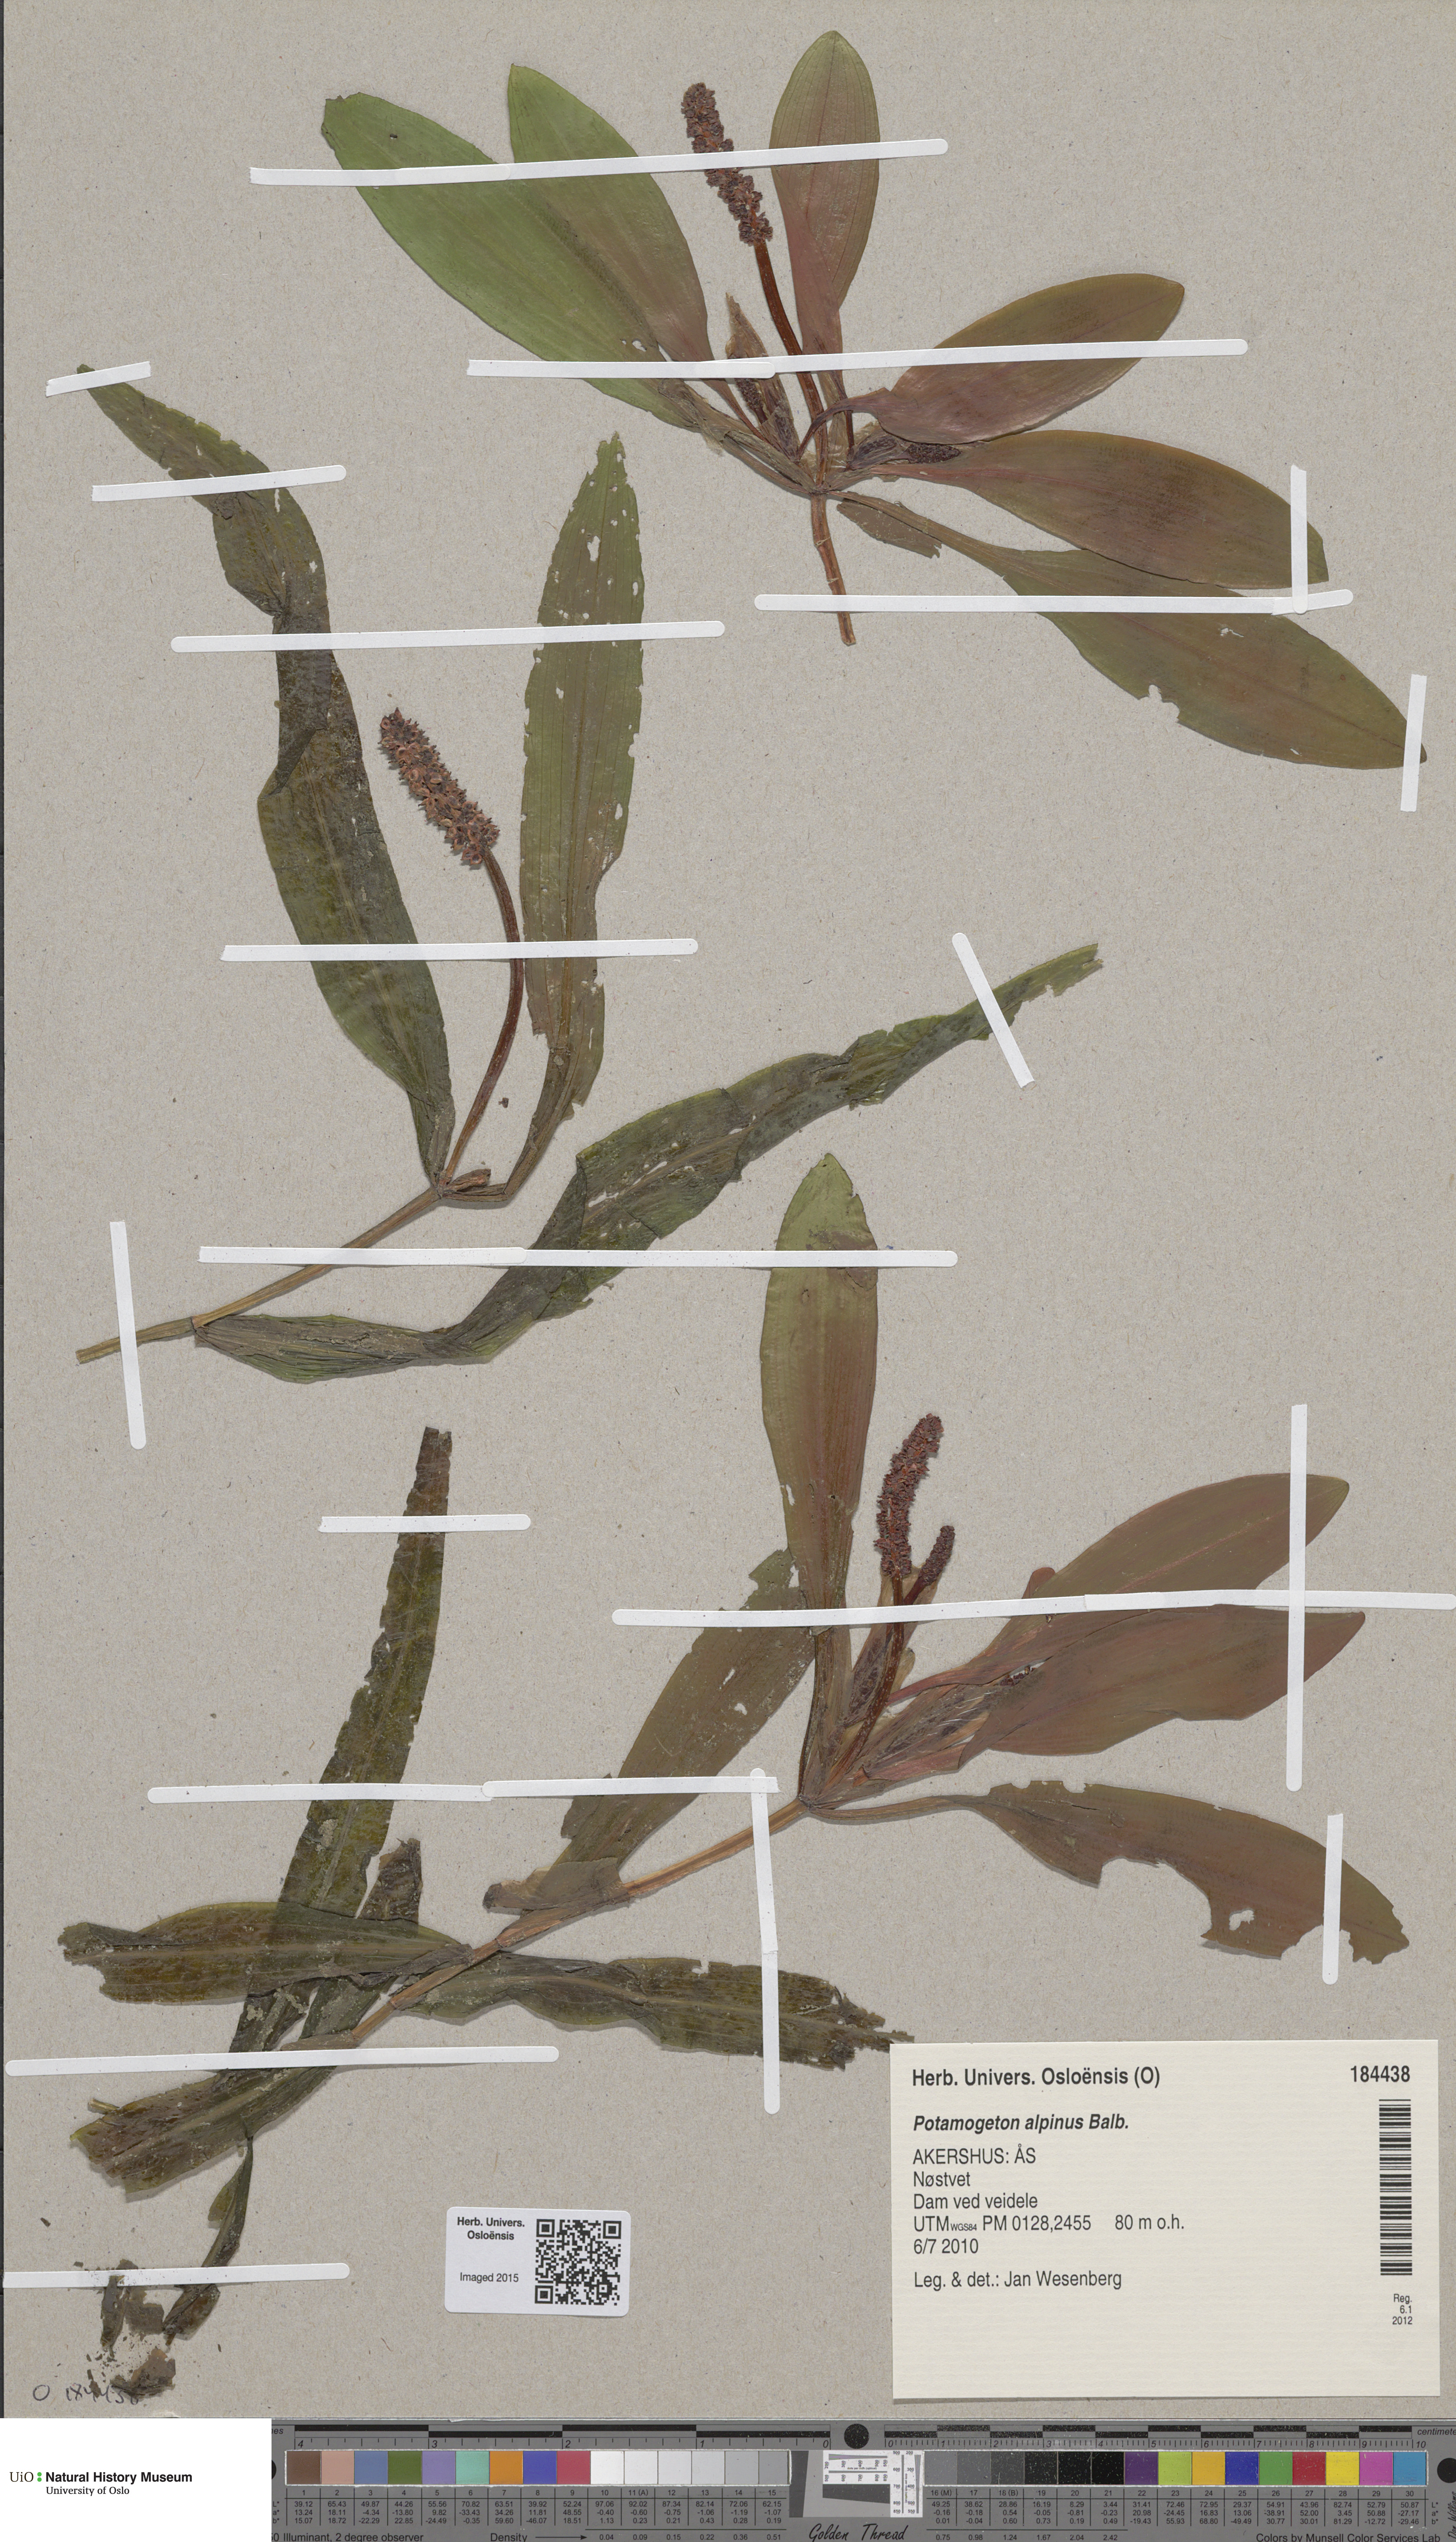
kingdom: Plantae
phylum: Tracheophyta
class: Liliopsida
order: Alismatales
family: Potamogetonaceae
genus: Potamogeton
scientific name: Potamogeton alpinus
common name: Red pondweed
